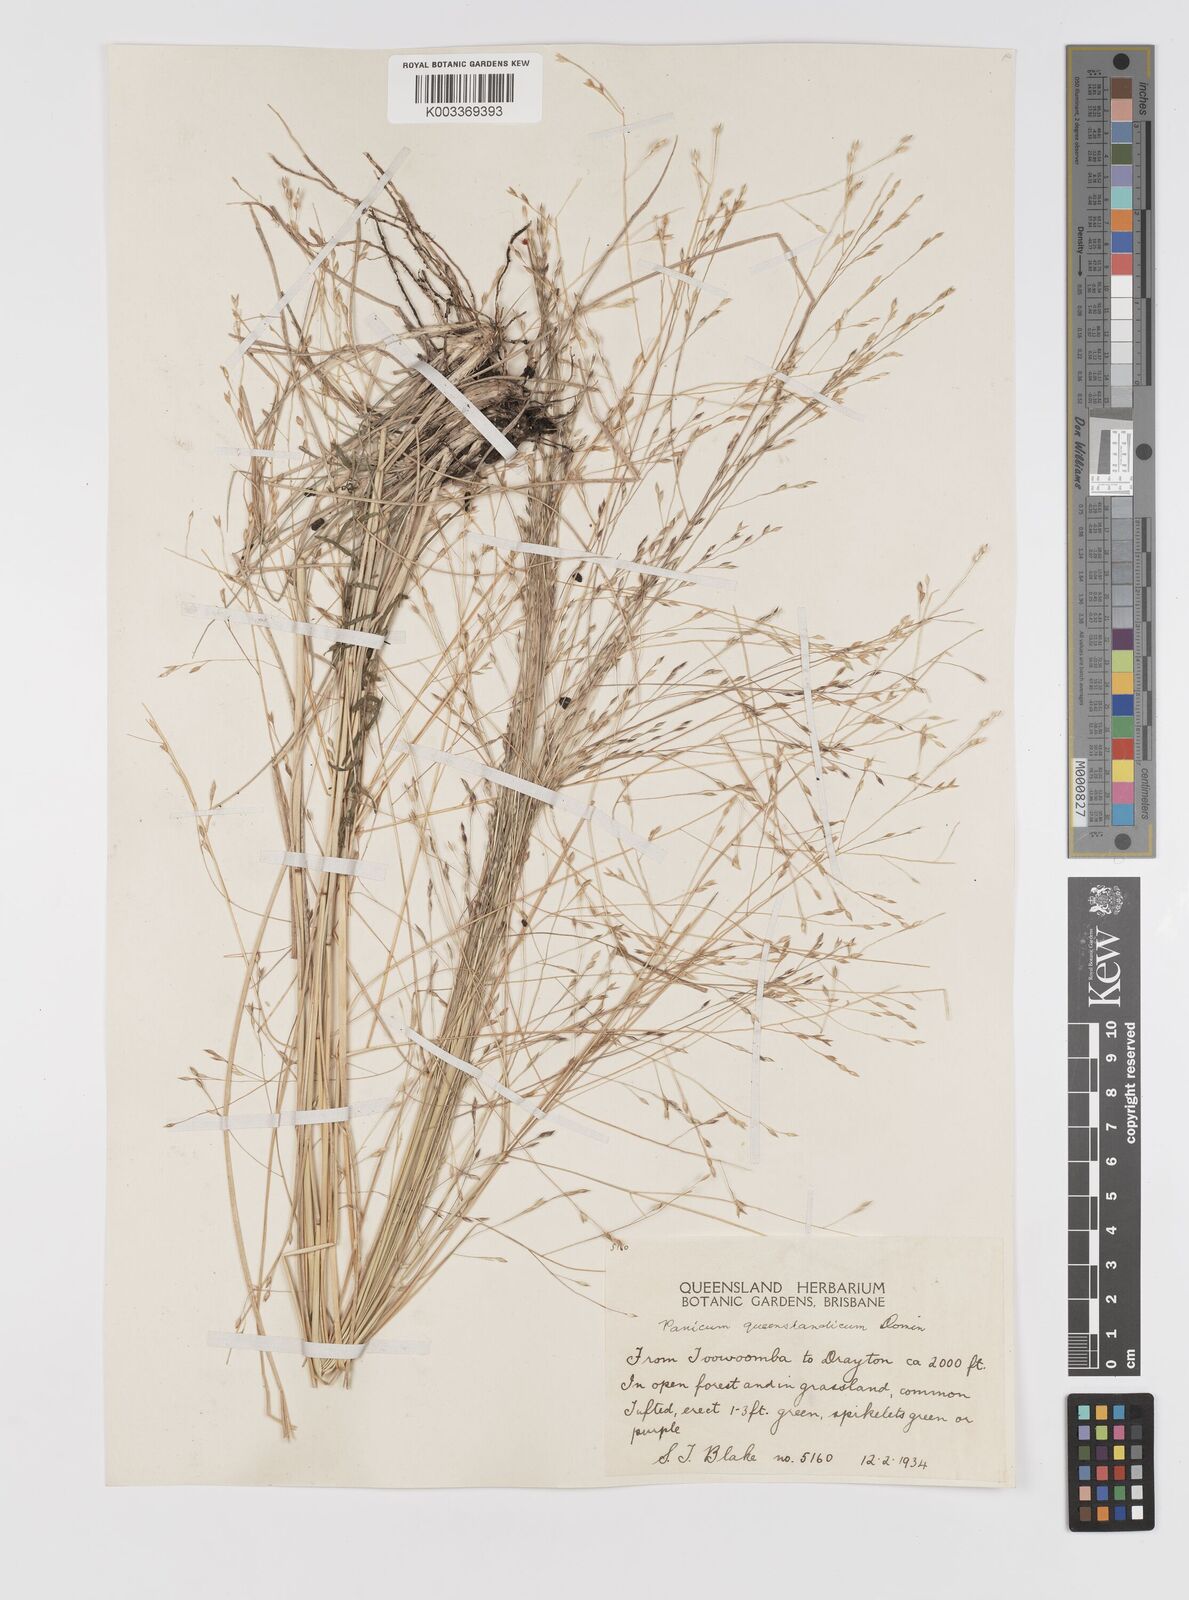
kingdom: Plantae
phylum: Tracheophyta
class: Liliopsida
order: Poales
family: Poaceae
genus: Panicum
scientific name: Panicum queenslandicum
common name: Yabila grass
